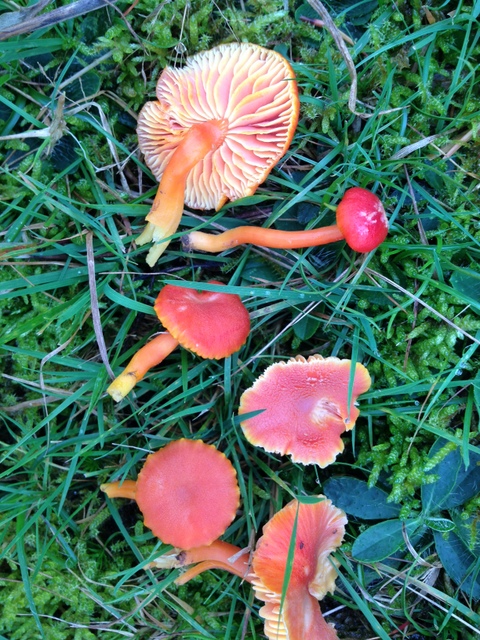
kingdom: Fungi
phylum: Basidiomycota
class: Agaricomycetes
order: Agaricales
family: Hygrophoraceae
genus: Hygrocybe
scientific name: Hygrocybe miniata
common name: mønje-vokshat
